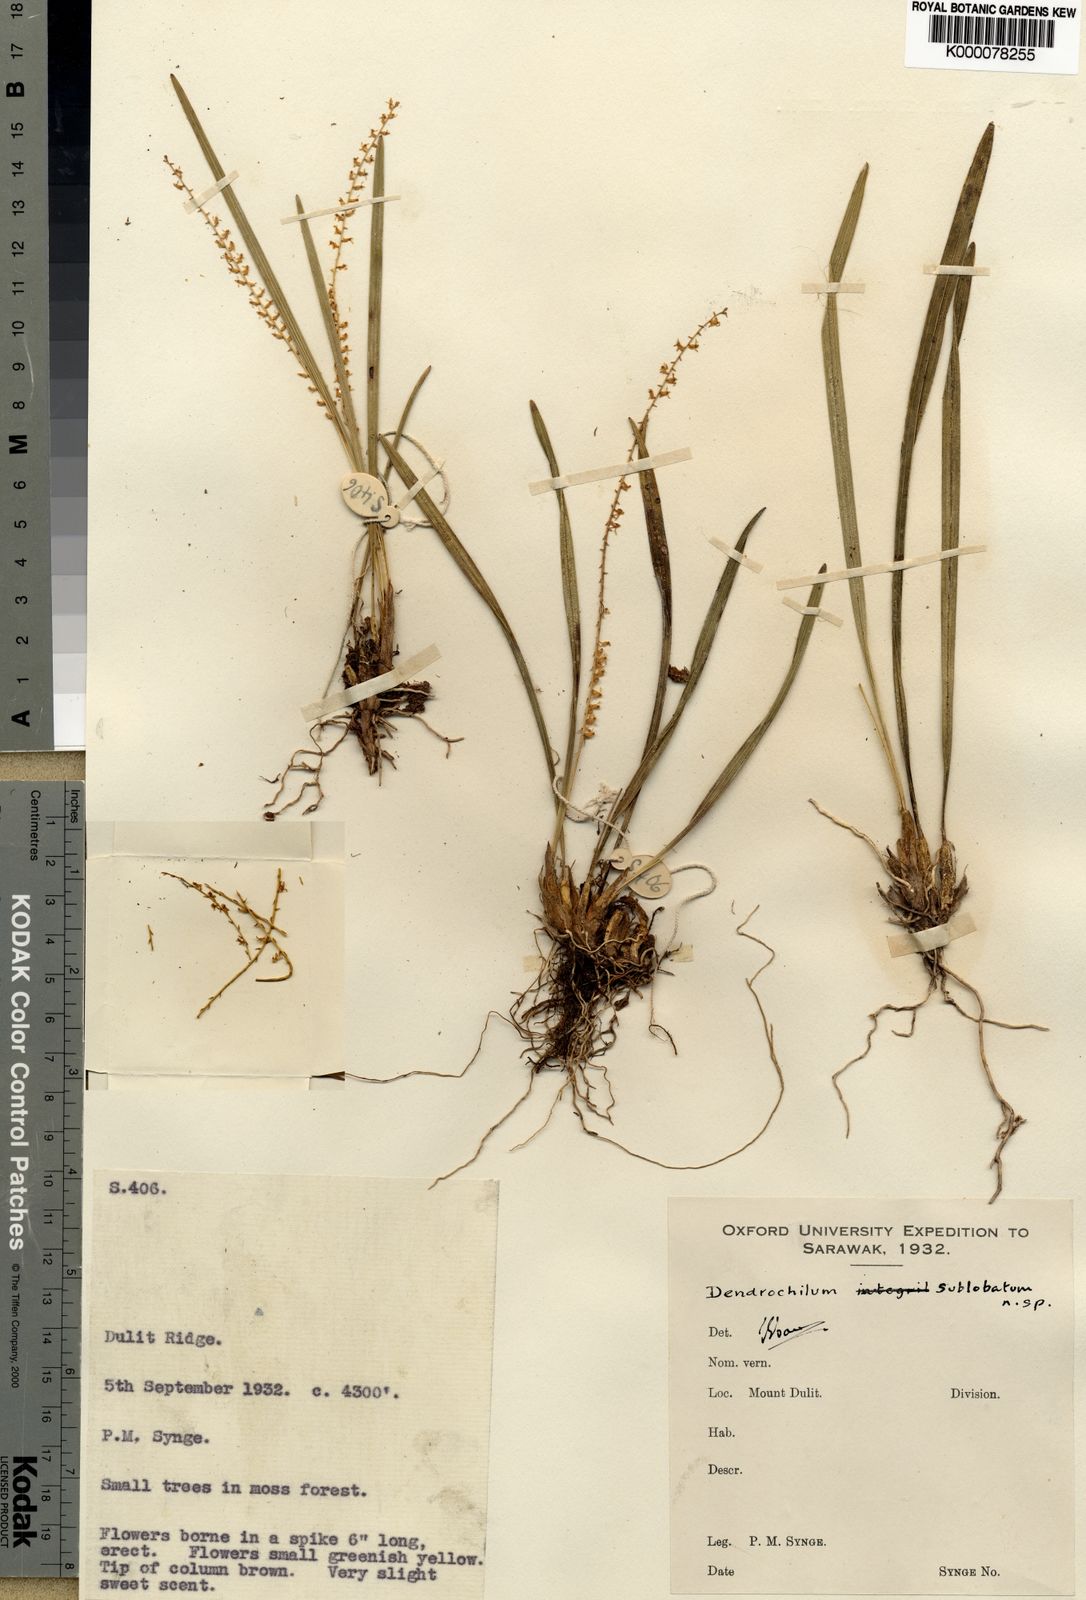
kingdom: Plantae
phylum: Tracheophyta
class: Liliopsida
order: Asparagales
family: Orchidaceae
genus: Coelogyne
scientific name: Coelogyne sublobata
